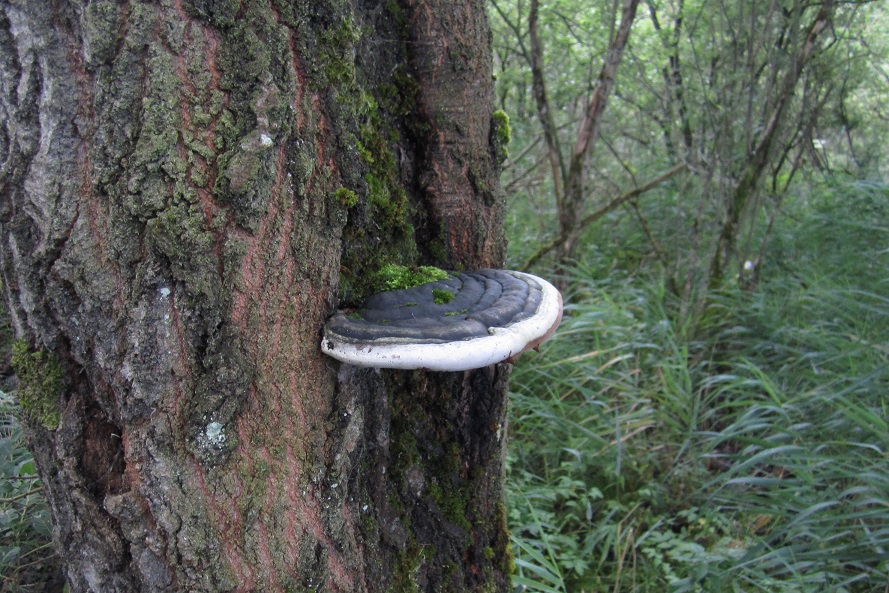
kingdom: Fungi
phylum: Basidiomycota
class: Agaricomycetes
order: Hymenochaetales
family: Hymenochaetaceae
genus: Phellinus
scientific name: Phellinus populicola
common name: poppel-ildporesvamp
